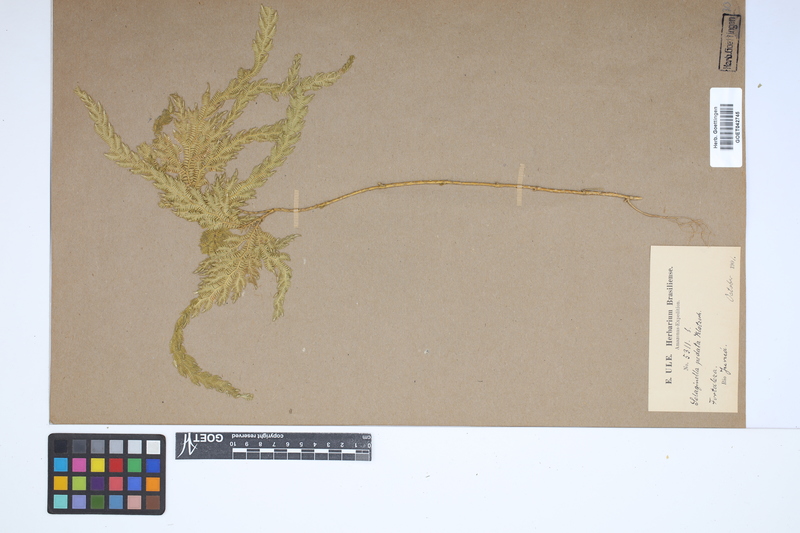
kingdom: Plantae
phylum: Tracheophyta
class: Lycopodiopsida
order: Selaginellales
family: Selaginellaceae
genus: Selaginella
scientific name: Selaginella pedata
